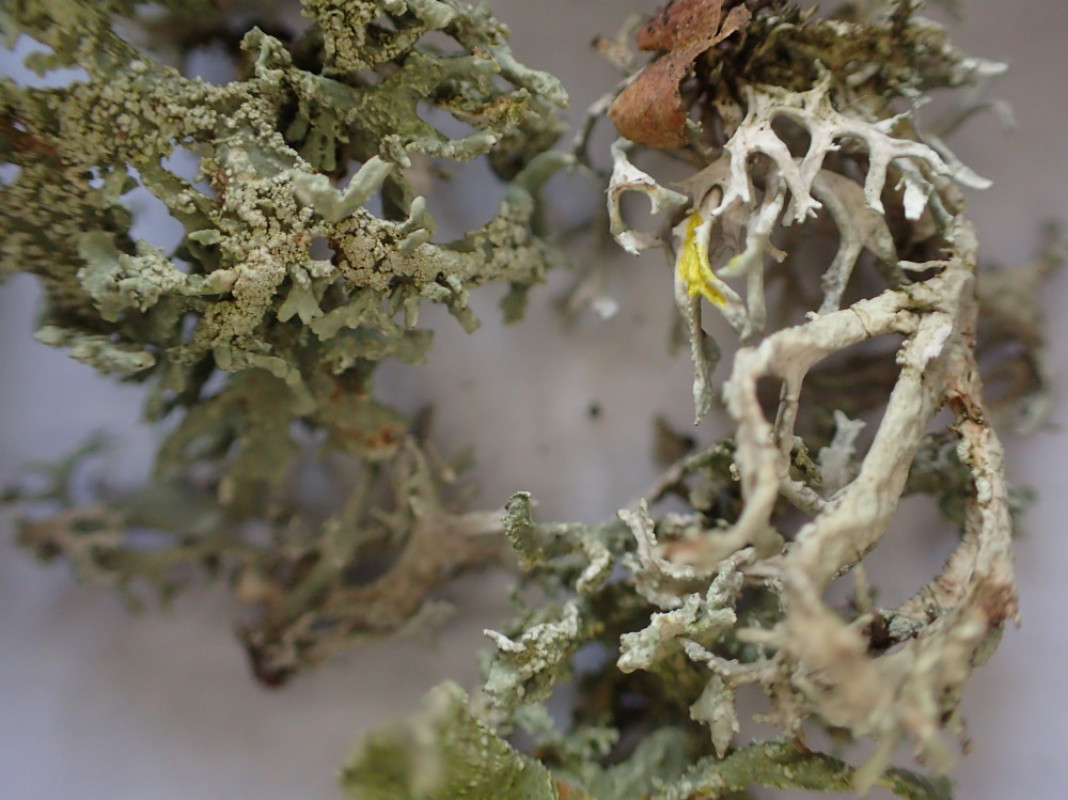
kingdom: Fungi
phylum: Ascomycota
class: Lecanoromycetes
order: Lecanorales
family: Parmeliaceae
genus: Evernia
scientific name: Evernia prunastri
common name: almindelig slåenlav
